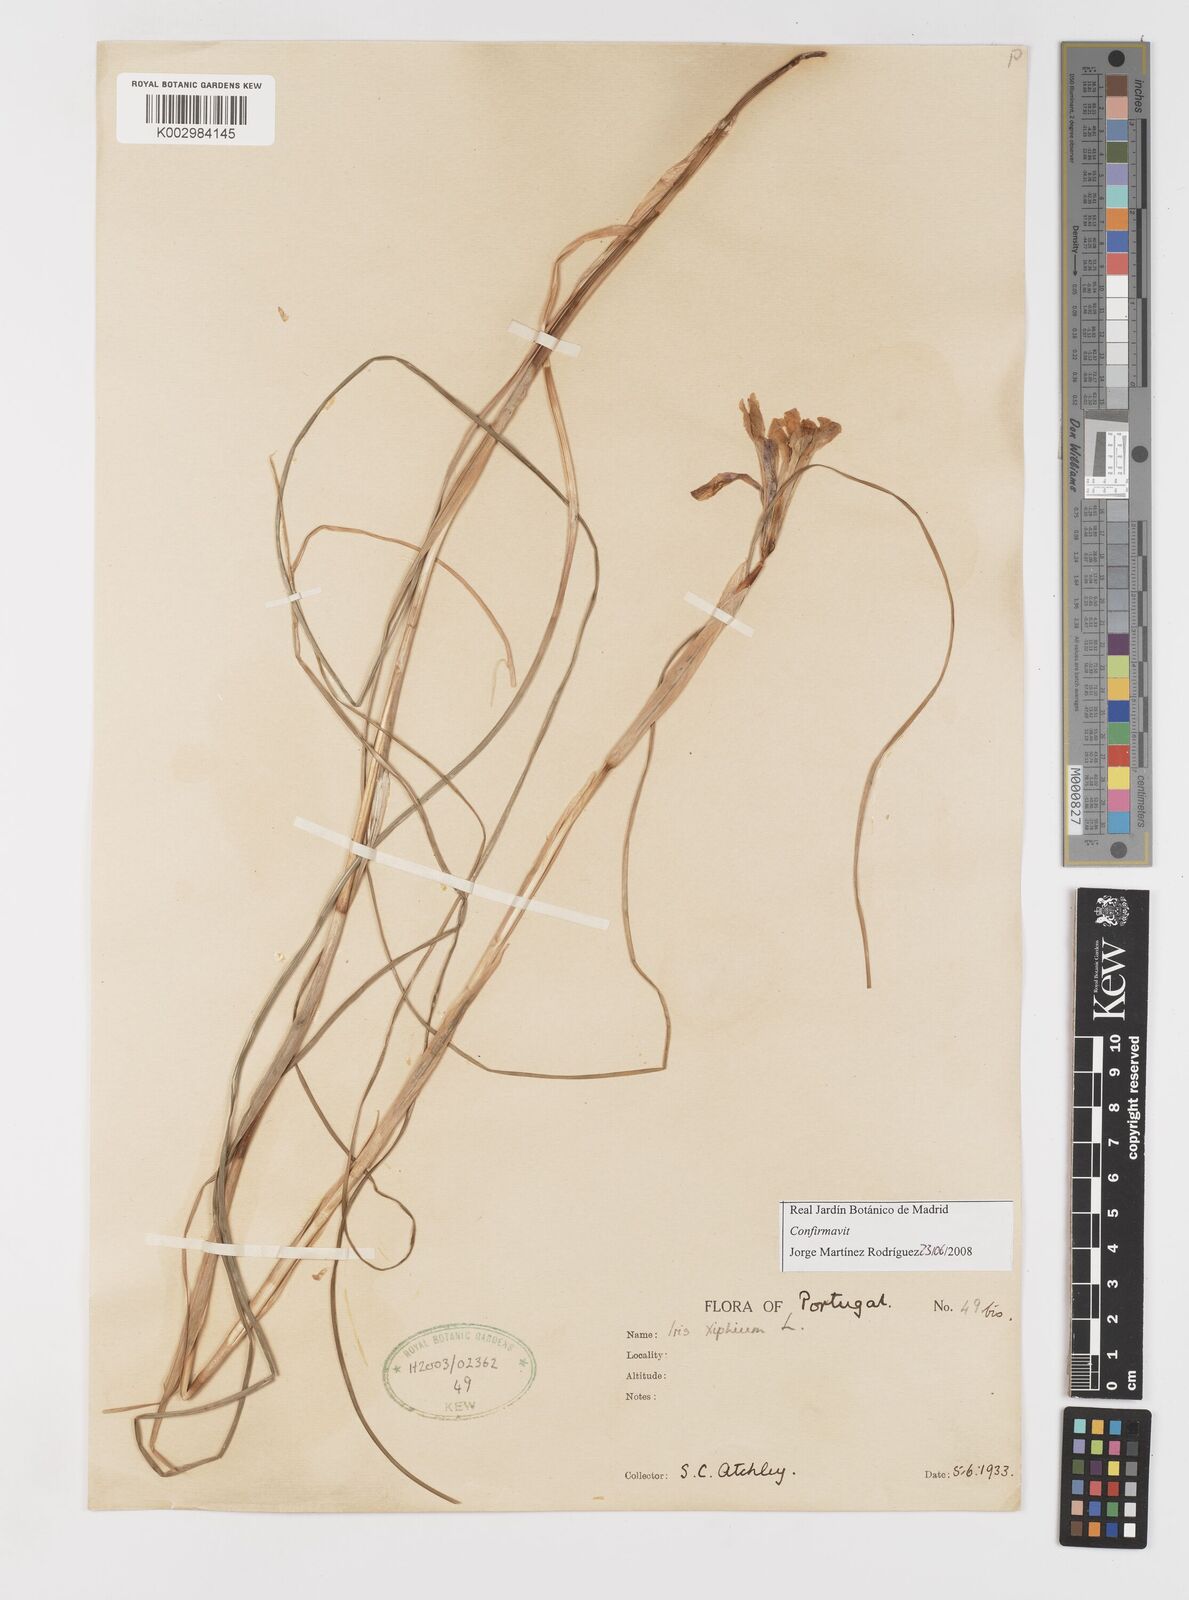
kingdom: Plantae
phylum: Tracheophyta
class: Liliopsida
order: Asparagales
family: Iridaceae
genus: Iris
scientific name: Iris xiphium
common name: Spanish iris
